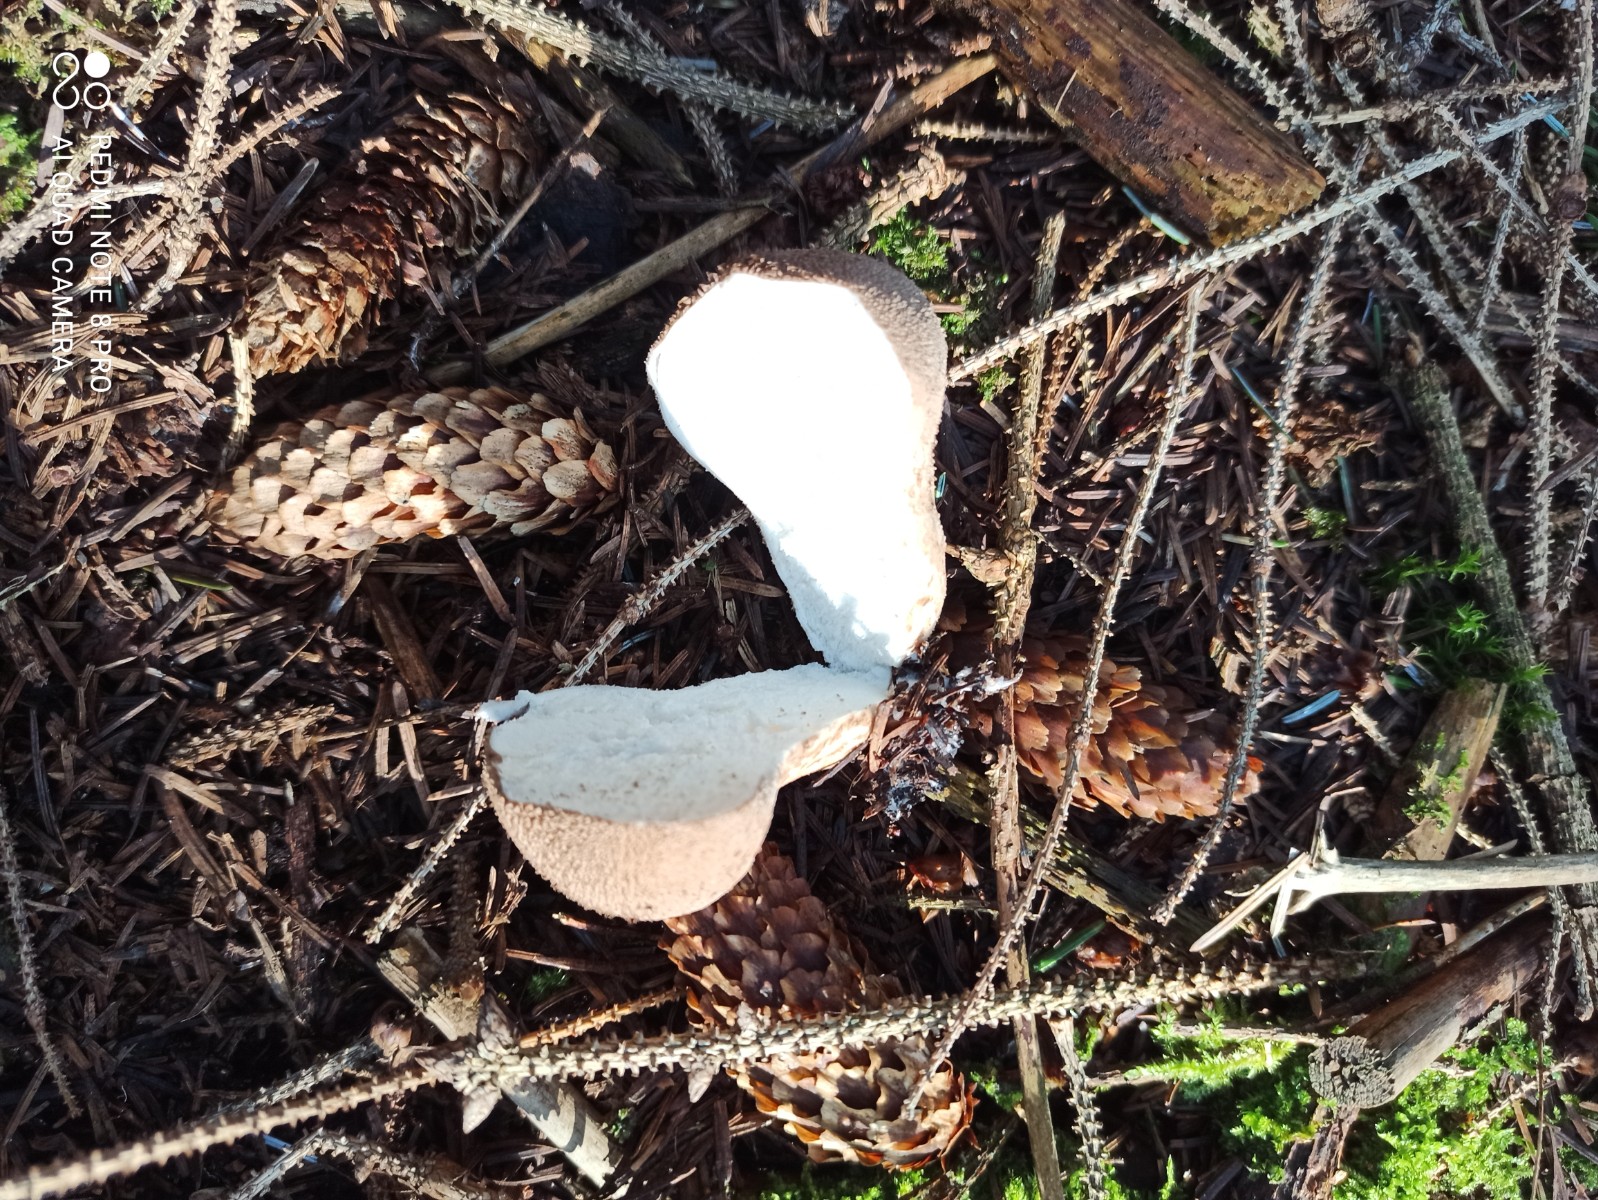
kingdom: Fungi
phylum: Basidiomycota
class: Agaricomycetes
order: Agaricales
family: Lycoperdaceae
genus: Lycoperdon
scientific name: Lycoperdon perlatum
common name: krystal-støvbold
